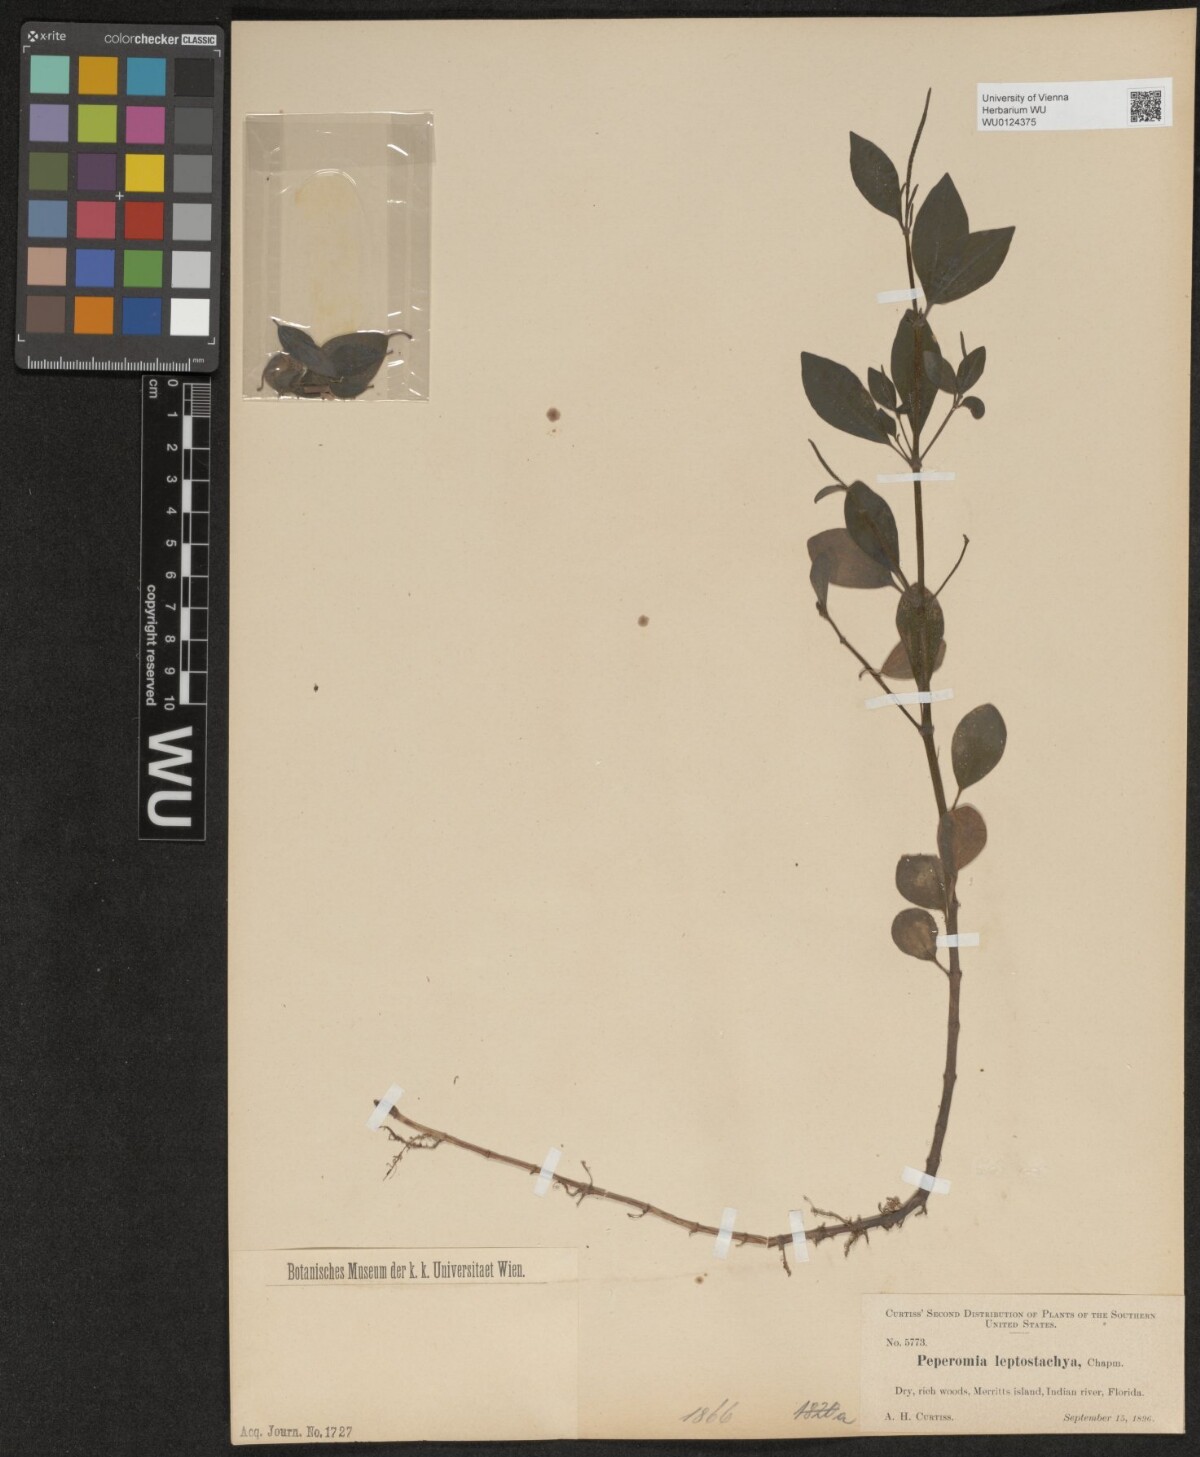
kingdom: Plantae
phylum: Tracheophyta
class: Magnoliopsida
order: Piperales
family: Piperaceae
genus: Peperomia
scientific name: Peperomia leptostachya
